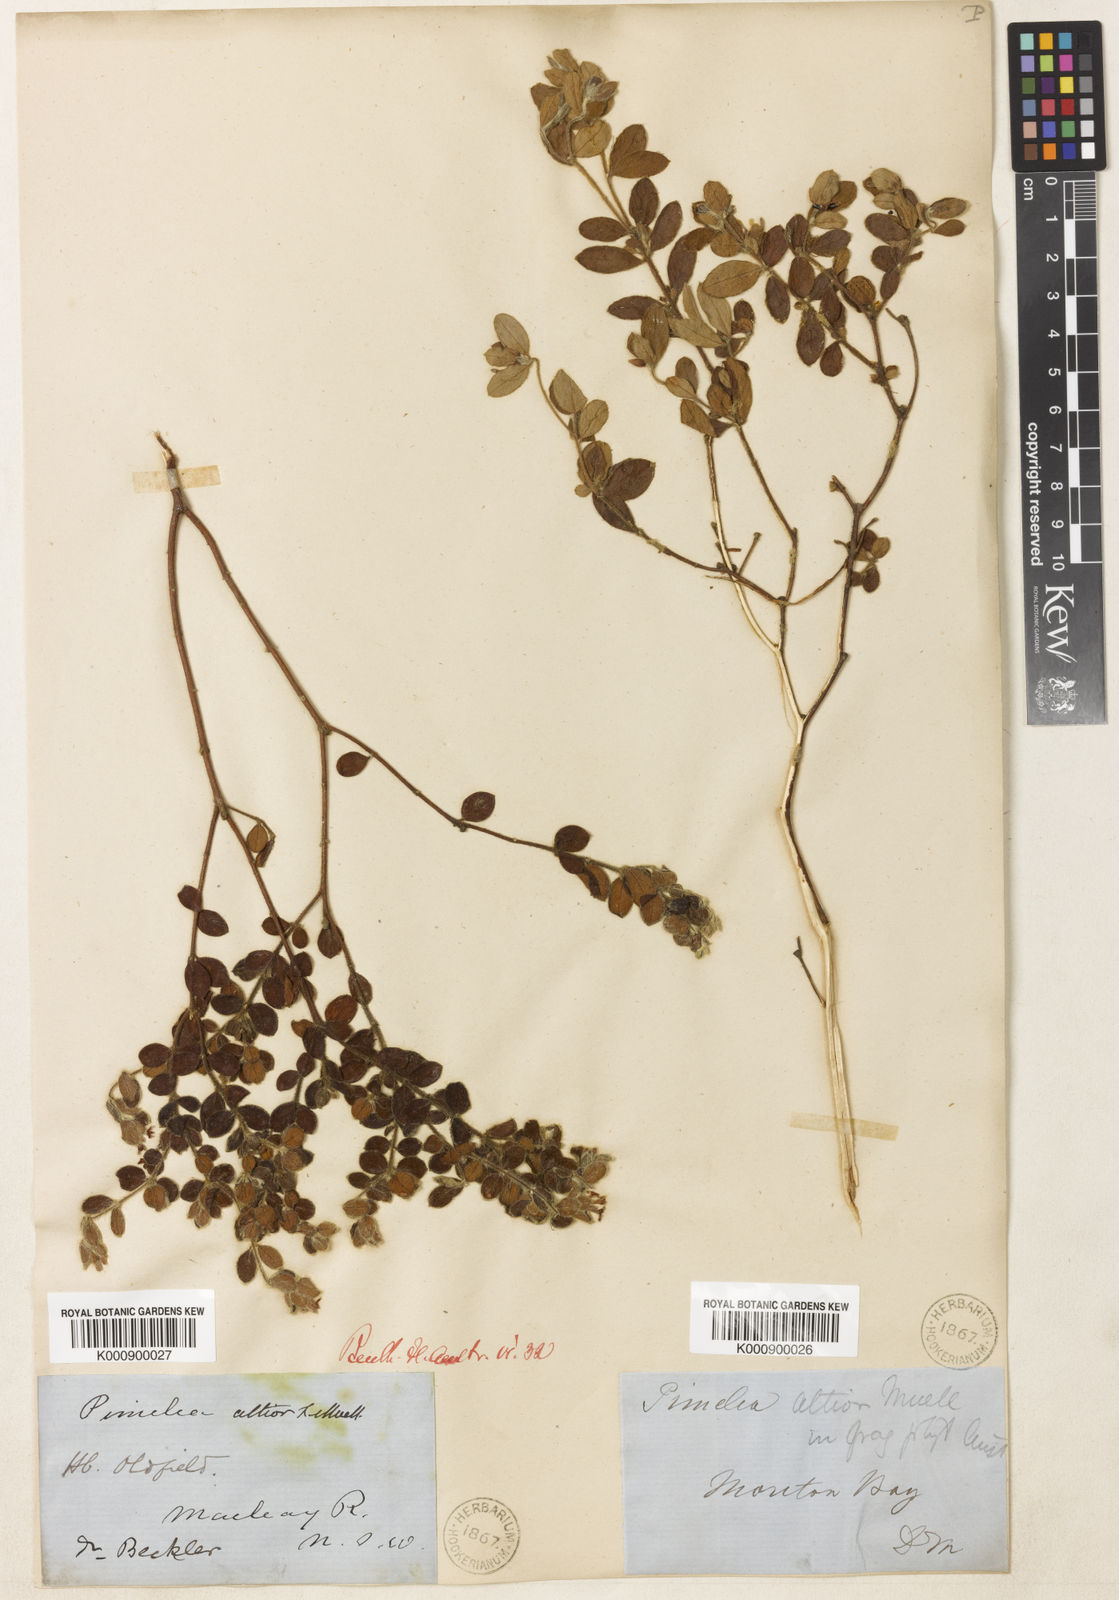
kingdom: Plantae
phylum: Tracheophyta
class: Magnoliopsida
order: Malvales
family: Thymelaeaceae
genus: Pimelea
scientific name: Pimelea altior
